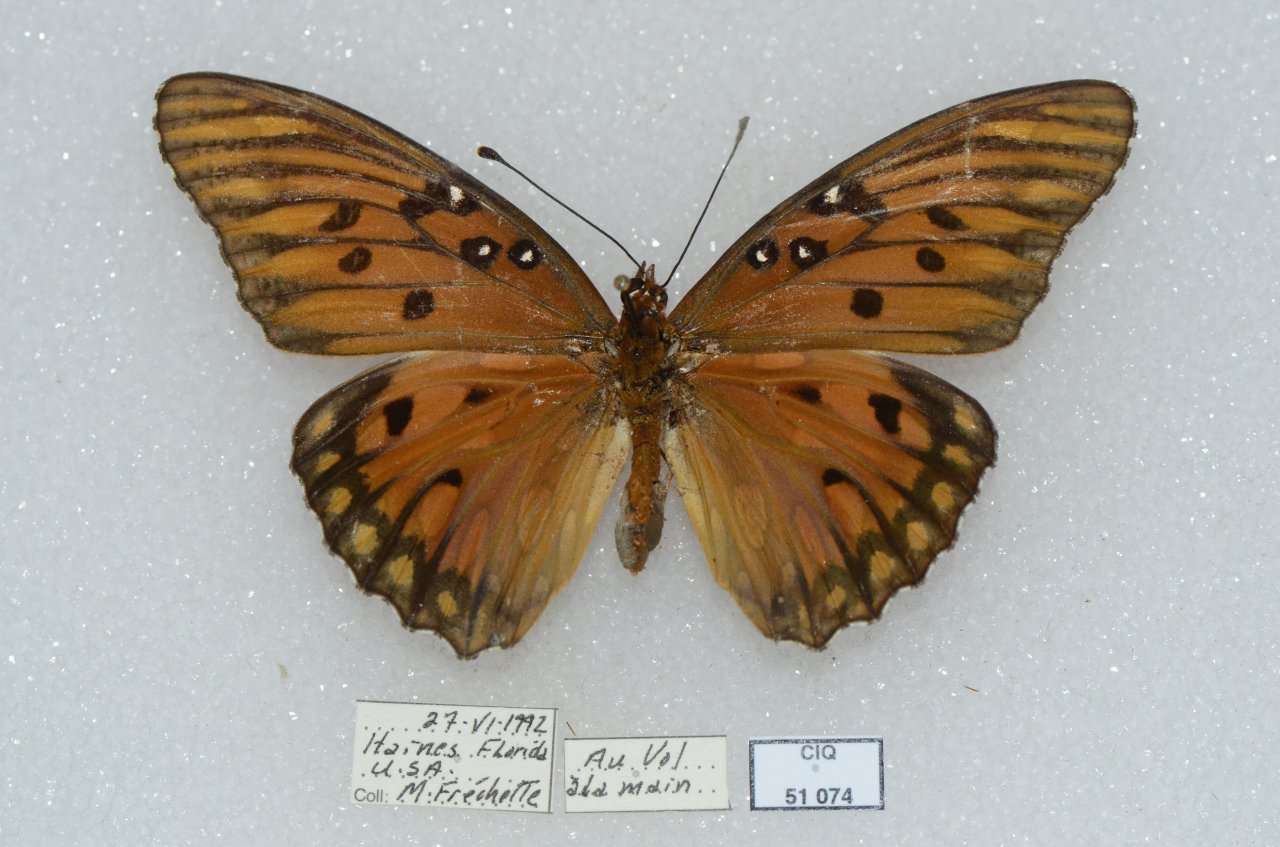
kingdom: Animalia
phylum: Arthropoda
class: Insecta
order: Lepidoptera
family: Nymphalidae
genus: Dione
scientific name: Dione vanillae
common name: Gulf Fritillary
